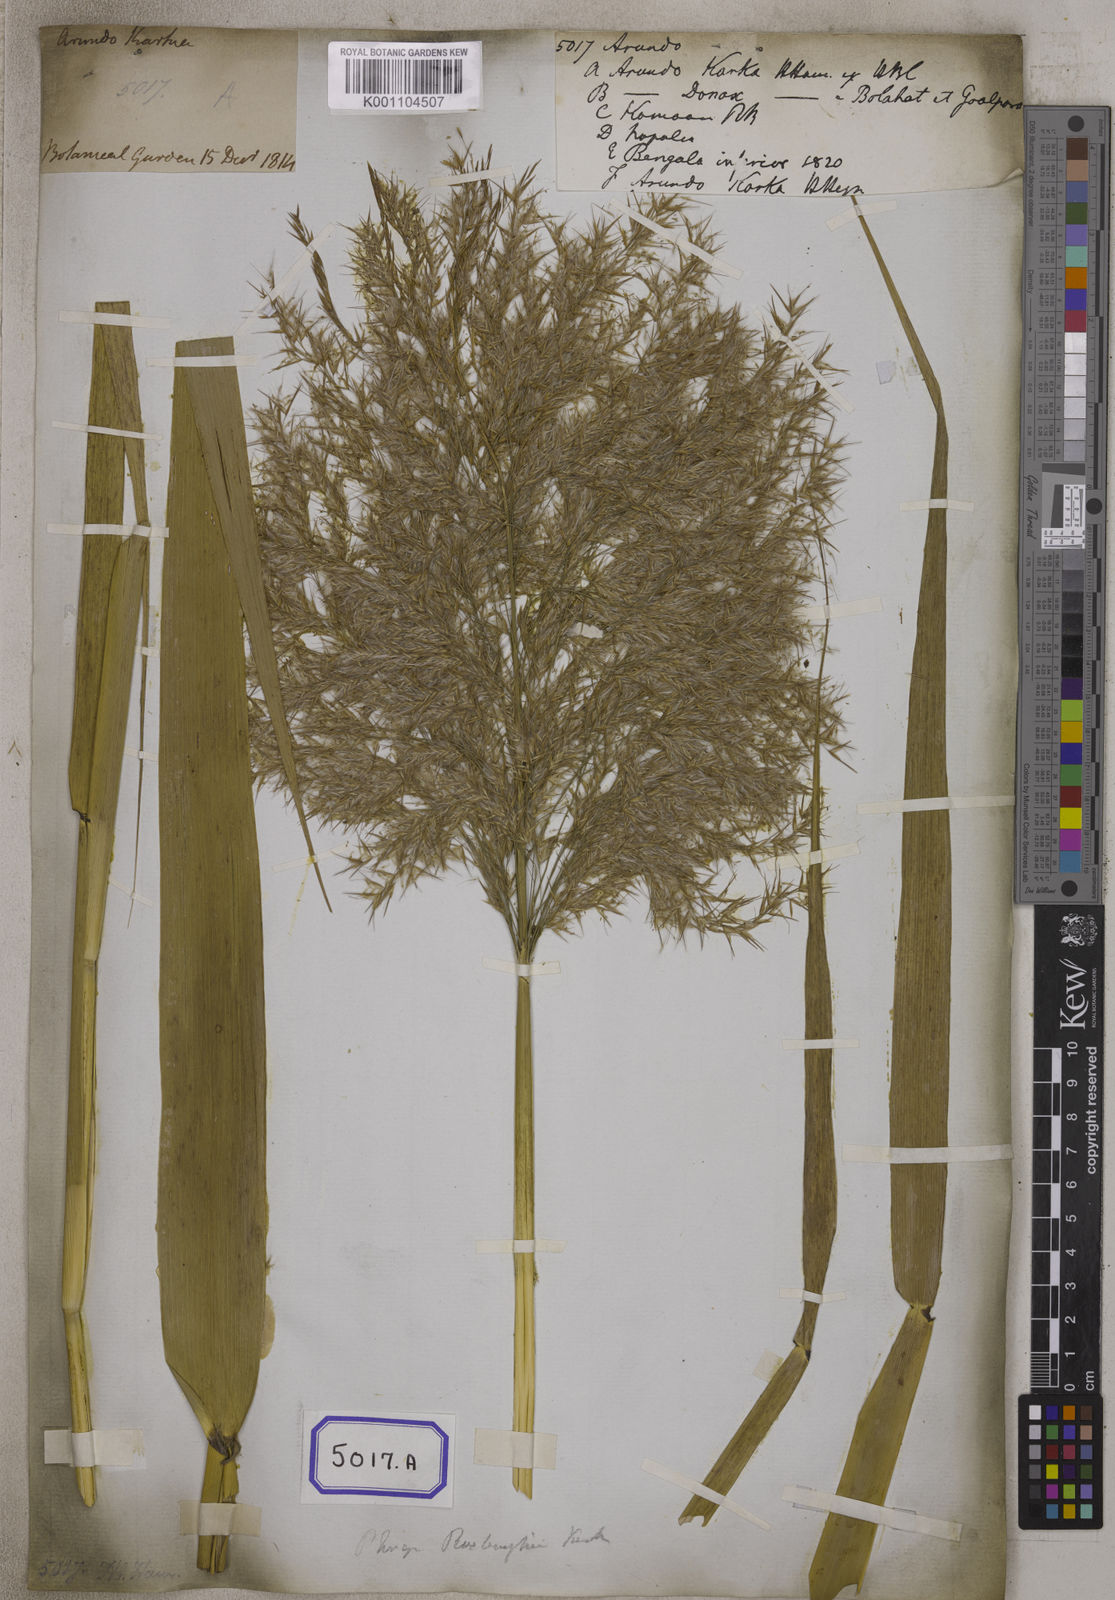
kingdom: Plantae
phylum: Tracheophyta
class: Liliopsida
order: Poales
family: Poaceae
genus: Arundo
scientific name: Arundo
